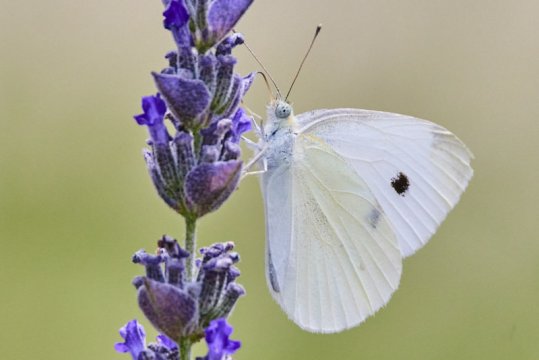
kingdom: Animalia
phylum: Arthropoda
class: Insecta
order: Lepidoptera
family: Pieridae
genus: Pieris
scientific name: Pieris rapae
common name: Cabbage White
